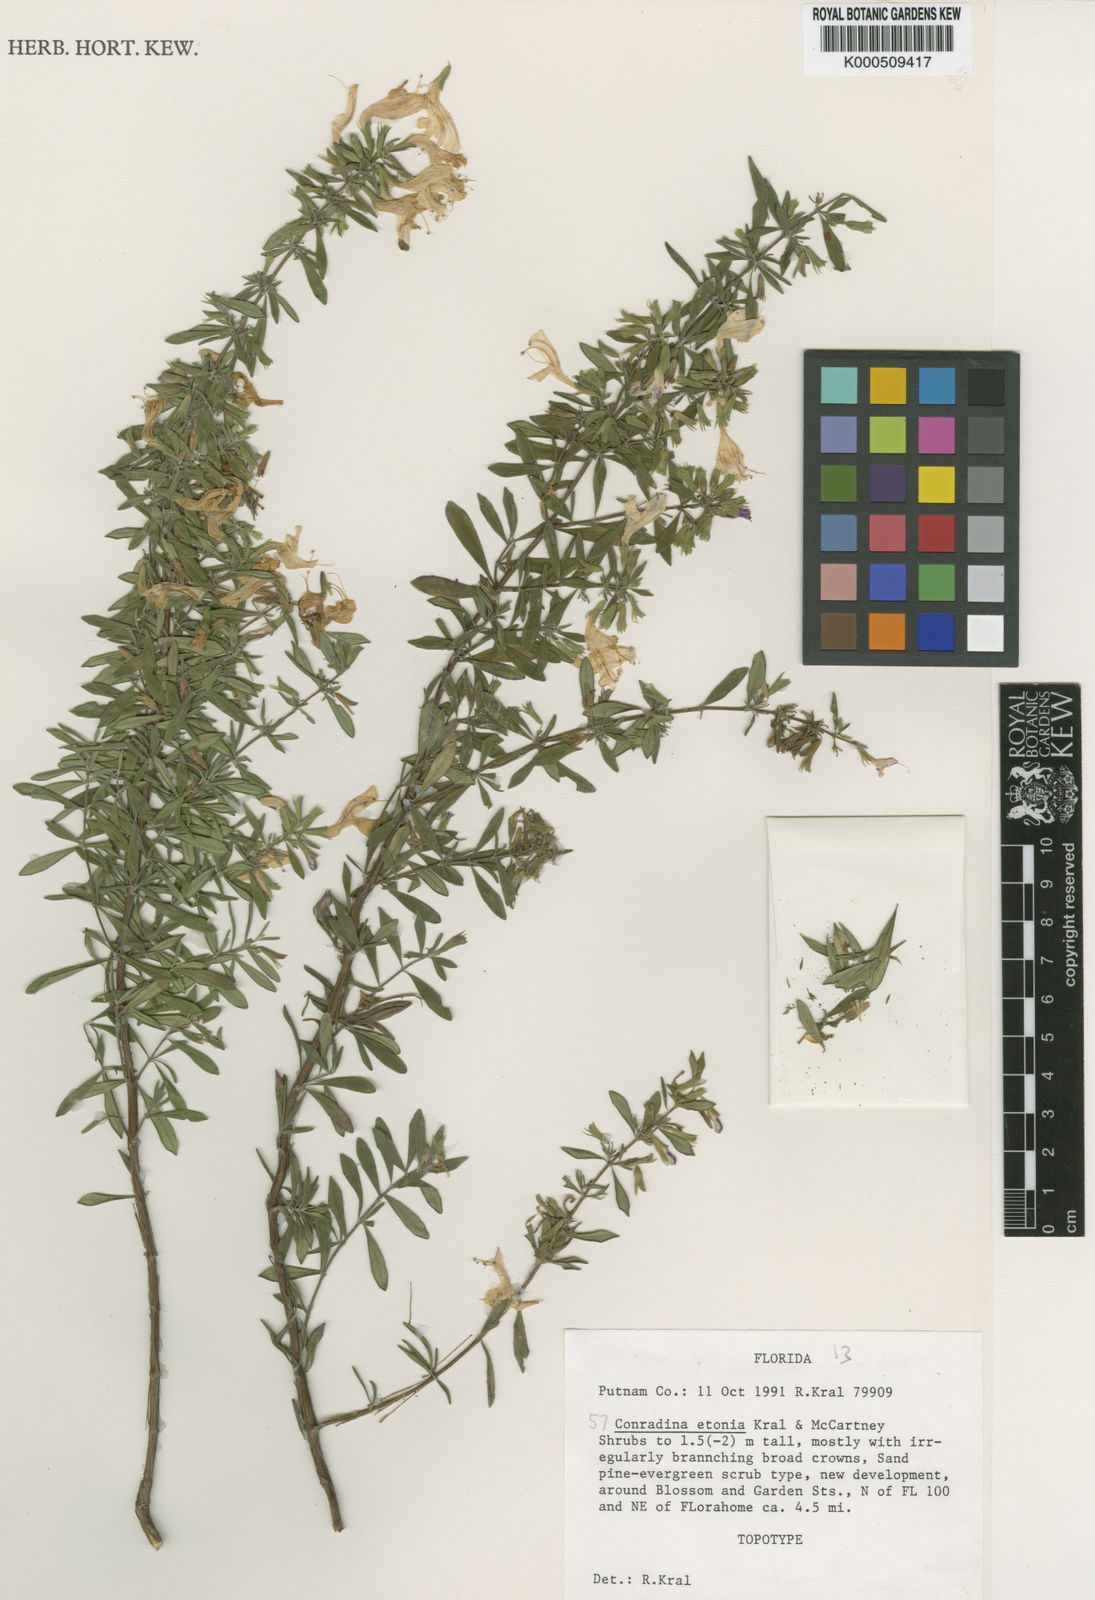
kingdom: Plantae
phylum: Tracheophyta
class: Magnoliopsida
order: Lamiales
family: Lamiaceae
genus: Conradina
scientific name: Conradina grandiflora
